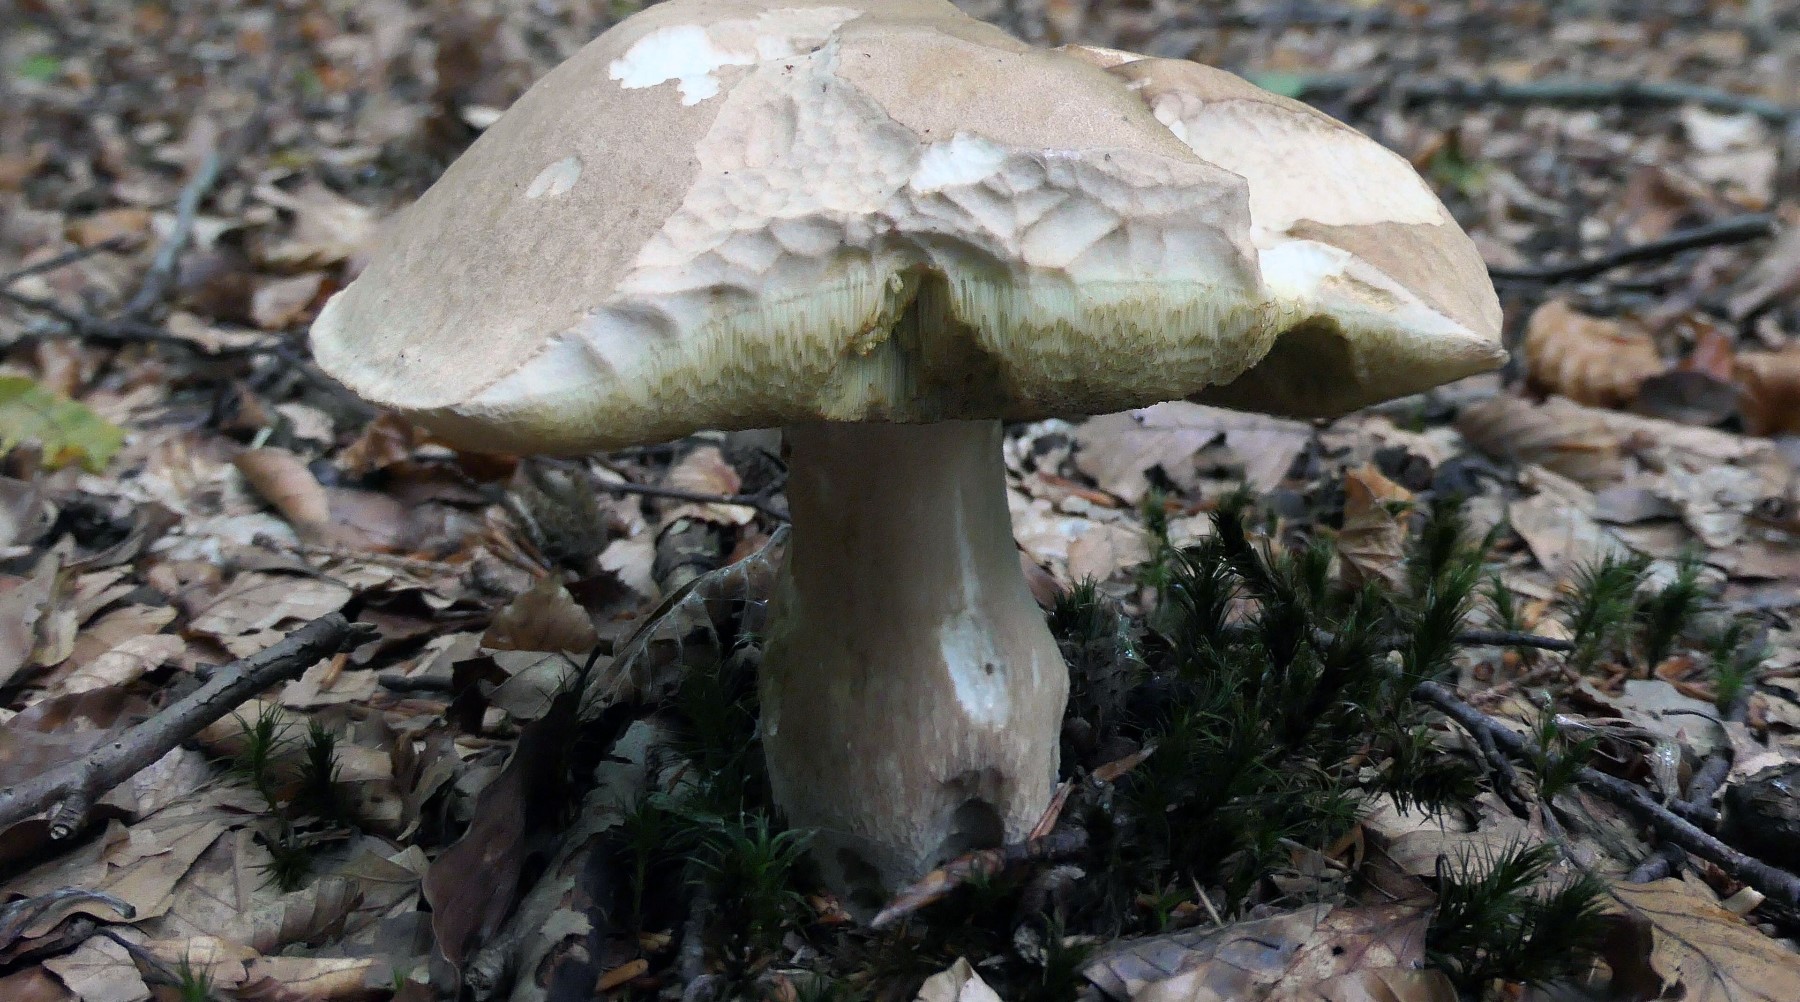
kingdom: Fungi
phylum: Basidiomycota
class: Agaricomycetes
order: Boletales
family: Boletaceae
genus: Boletus
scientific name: Boletus reticulatus
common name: sommer-rørhat
